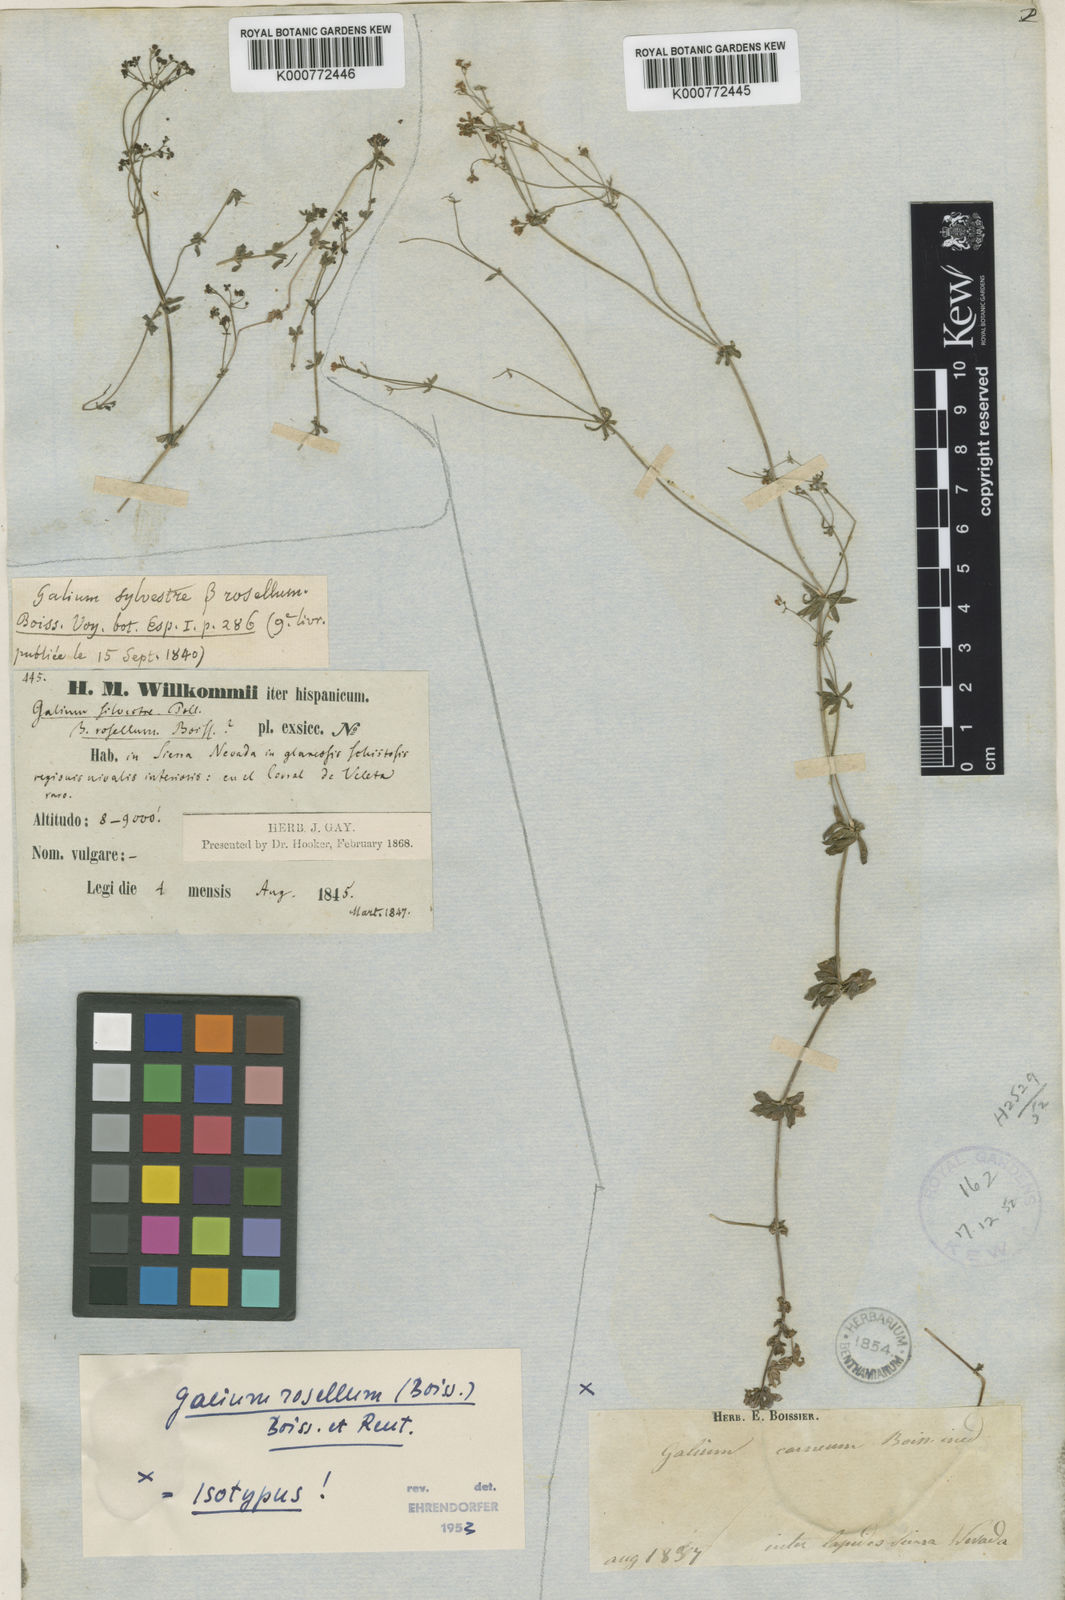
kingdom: Plantae
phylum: Tracheophyta
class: Magnoliopsida
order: Gentianales
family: Rubiaceae
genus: Galium
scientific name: Galium rosellum
